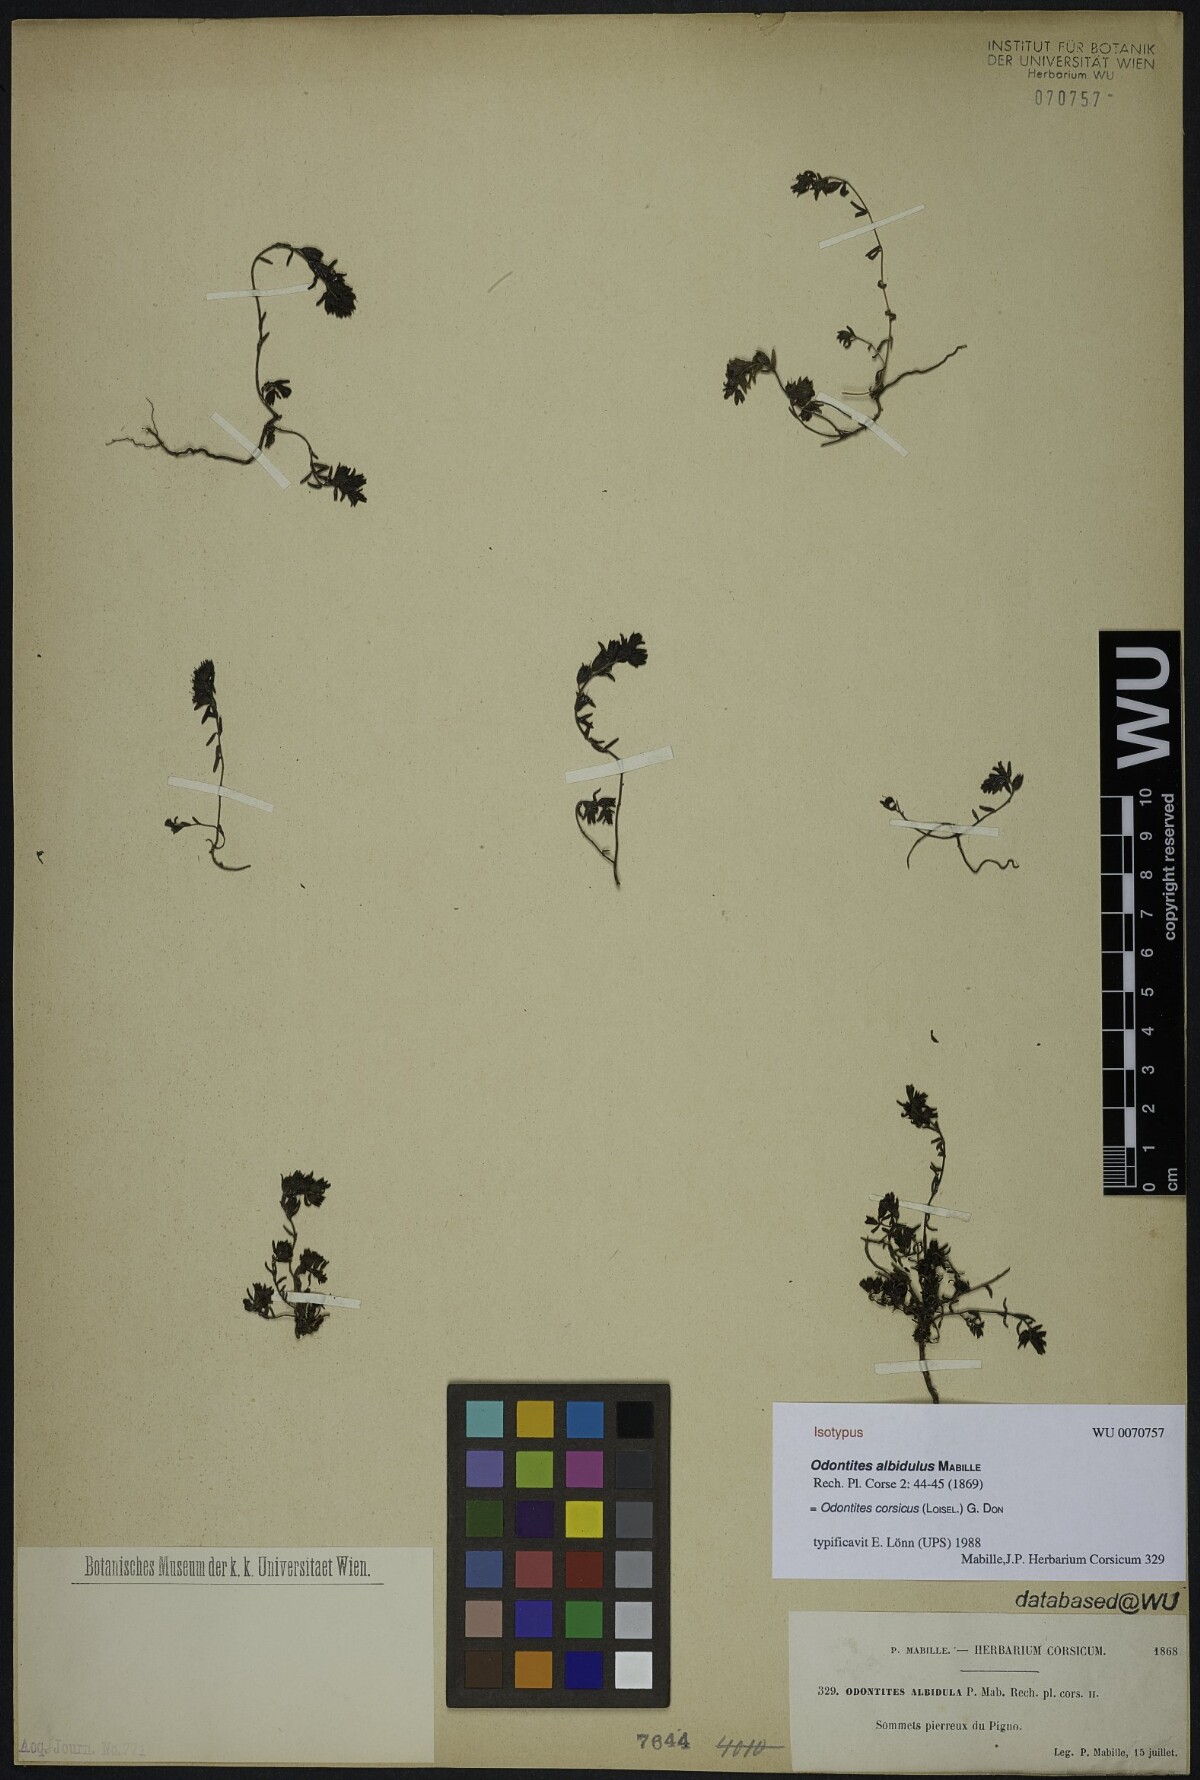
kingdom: Plantae
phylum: Tracheophyta
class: Magnoliopsida
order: Lamiales
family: Orobanchaceae
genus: Odontites
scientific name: Odontites corsicus
